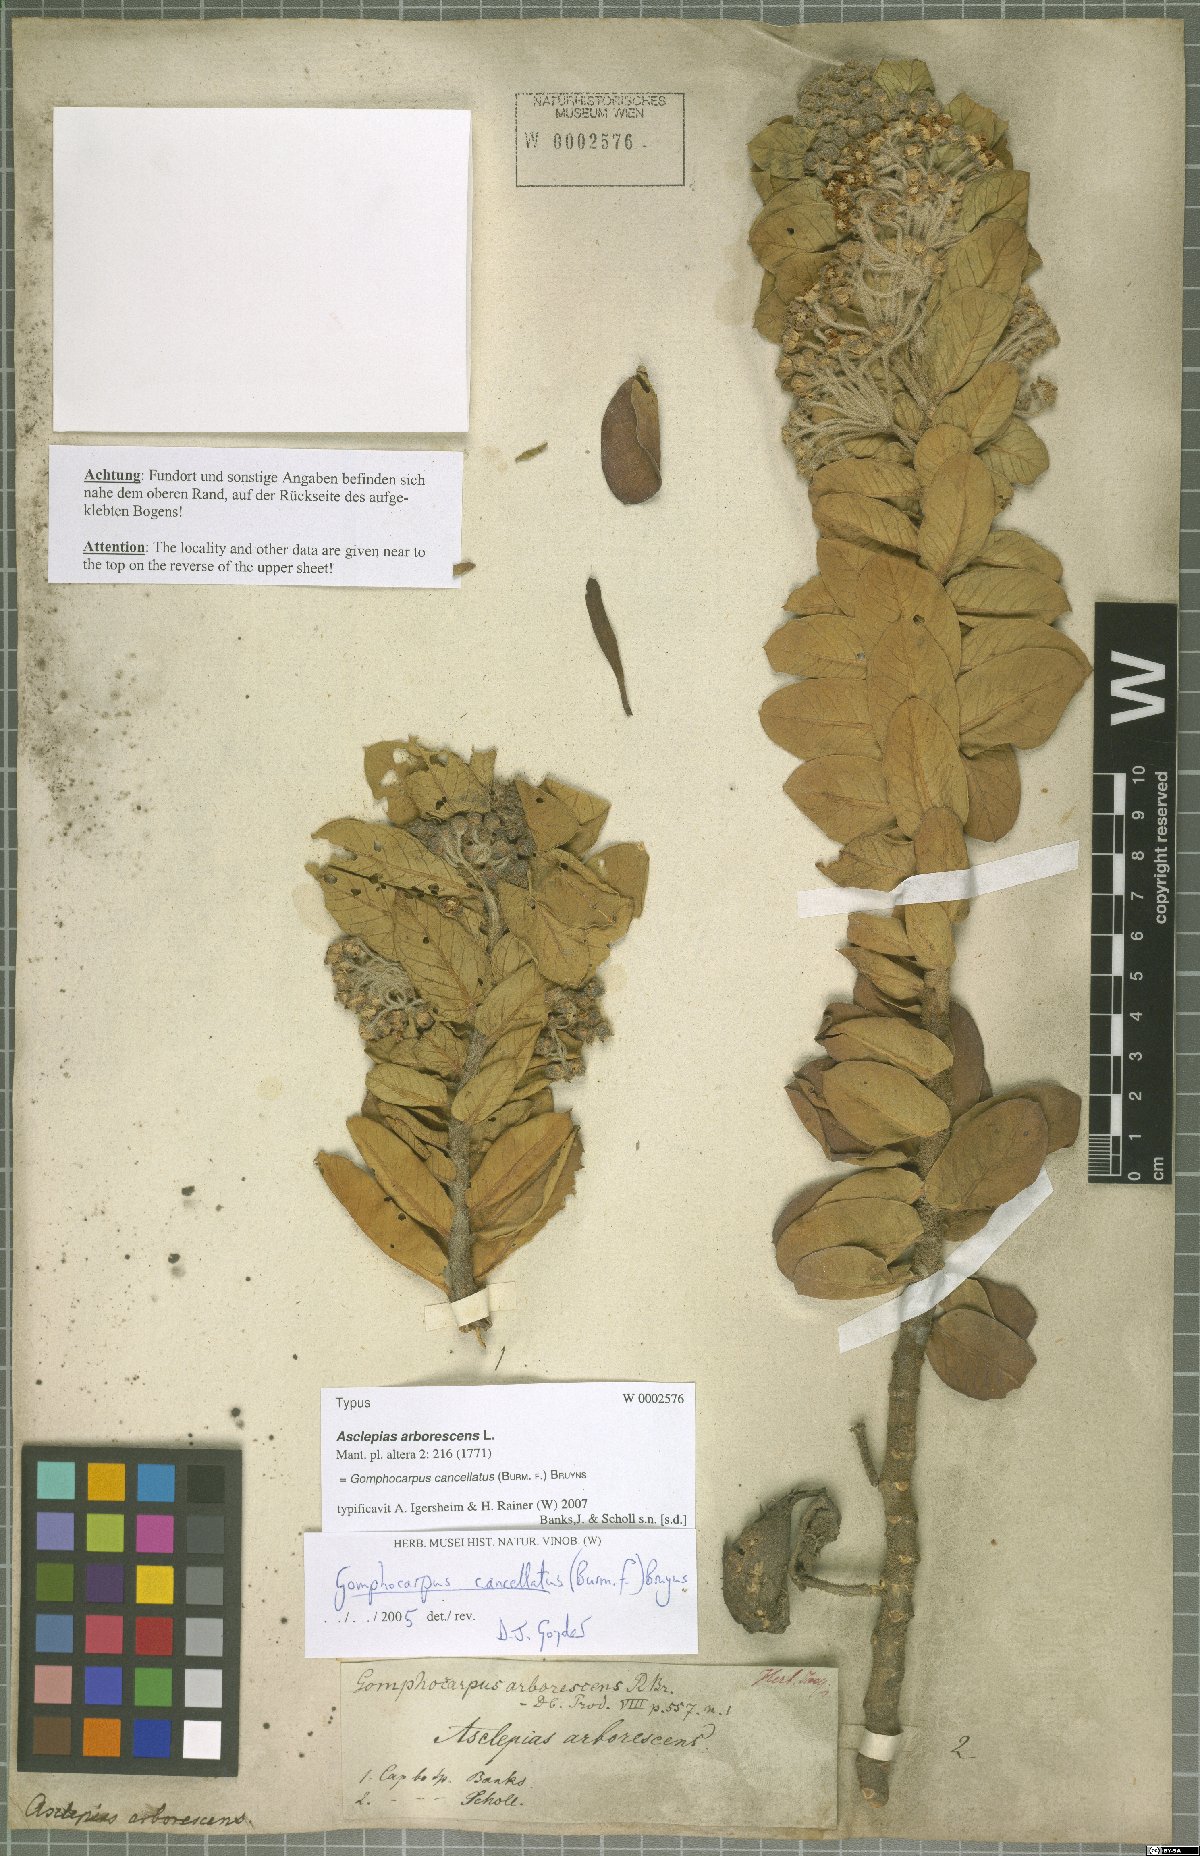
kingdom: Plantae
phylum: Tracheophyta
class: Magnoliopsida
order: Gentianales
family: Apocynaceae
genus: Gomphocarpus
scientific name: Gomphocarpus cancellatus
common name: Wild cotton
